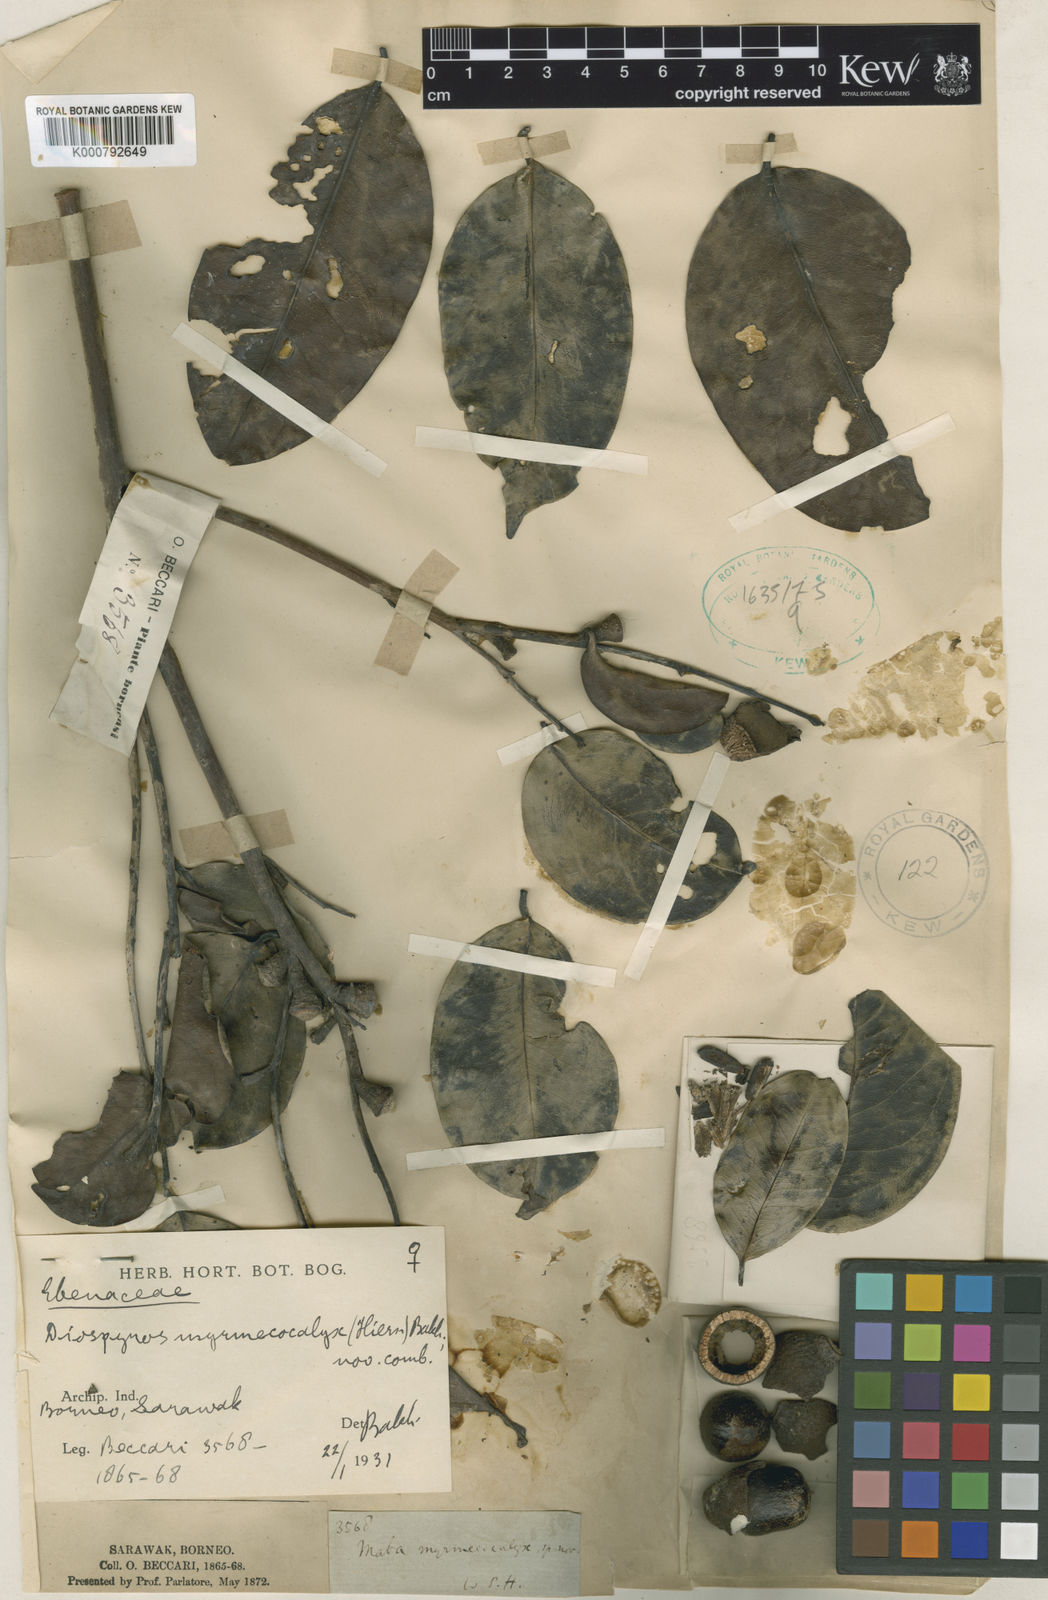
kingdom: Plantae
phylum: Tracheophyta
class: Magnoliopsida
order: Ericales
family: Ebenaceae
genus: Diospyros
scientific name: Diospyros korthalsiana
